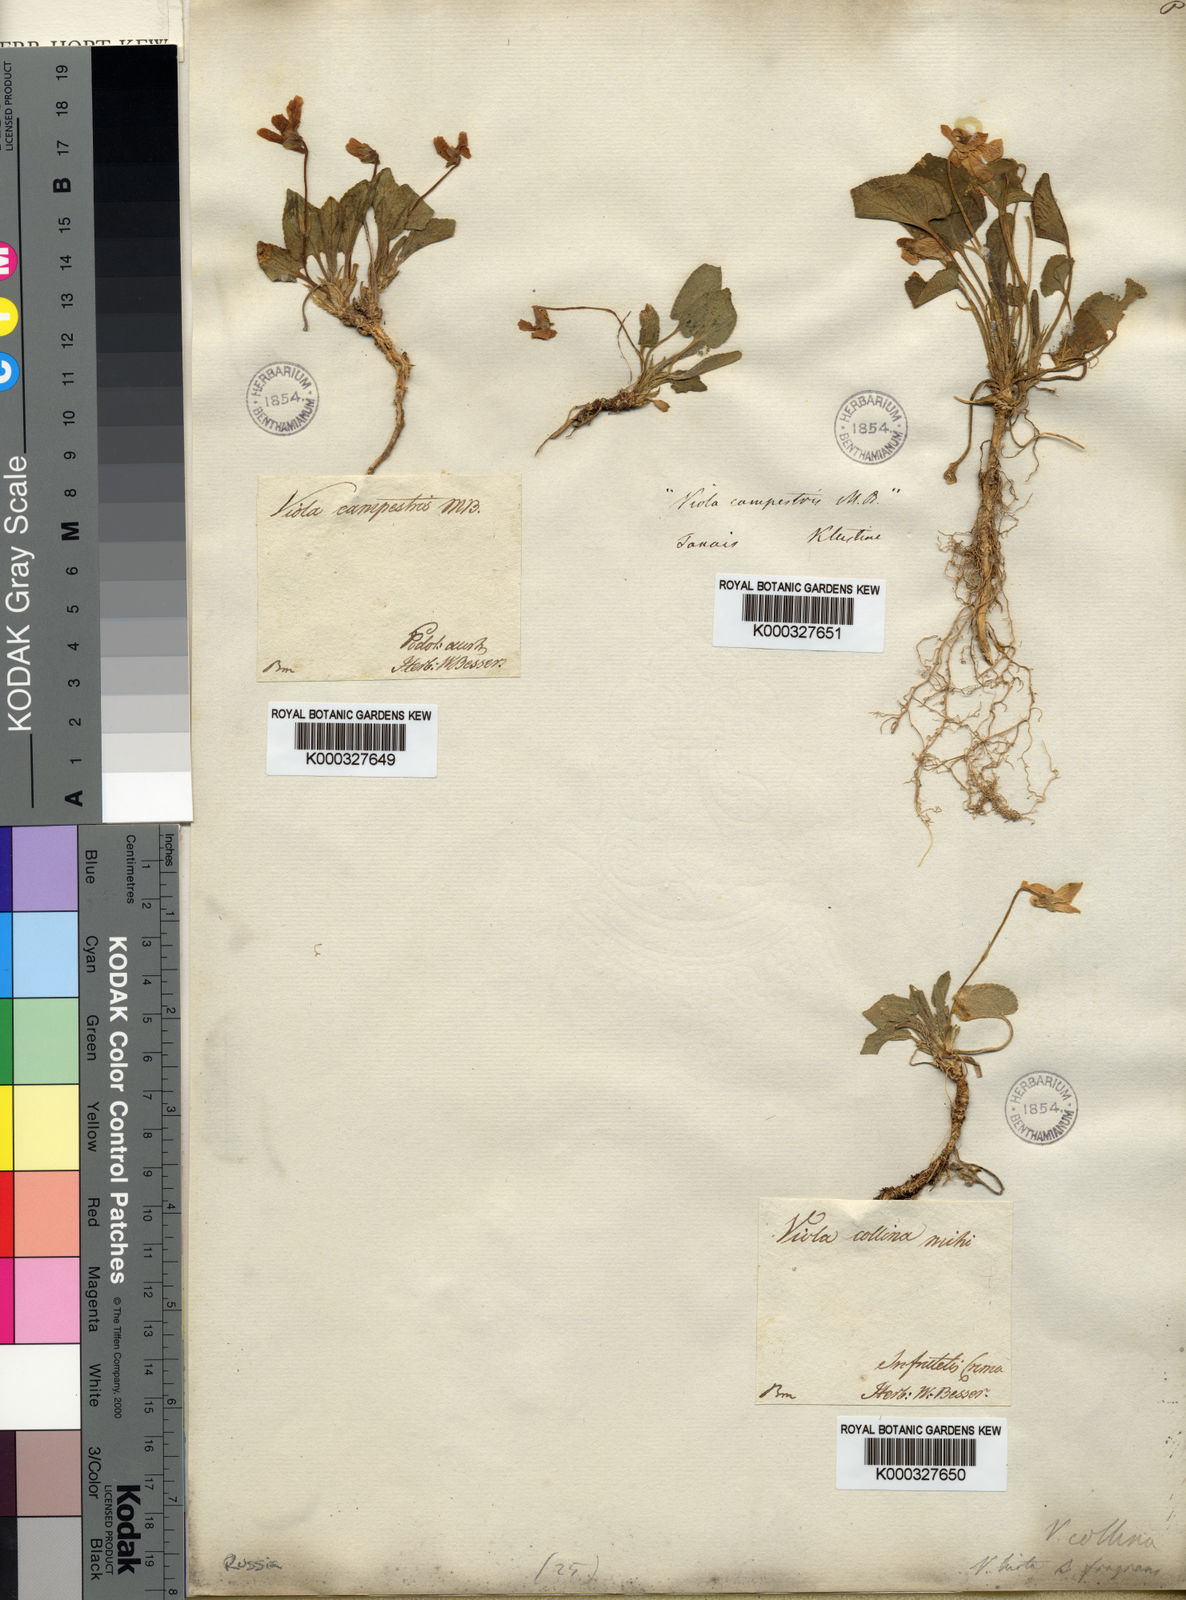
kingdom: Plantae
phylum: Tracheophyta
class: Magnoliopsida
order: Malpighiales
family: Violaceae
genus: Viola
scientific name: Viola collina
